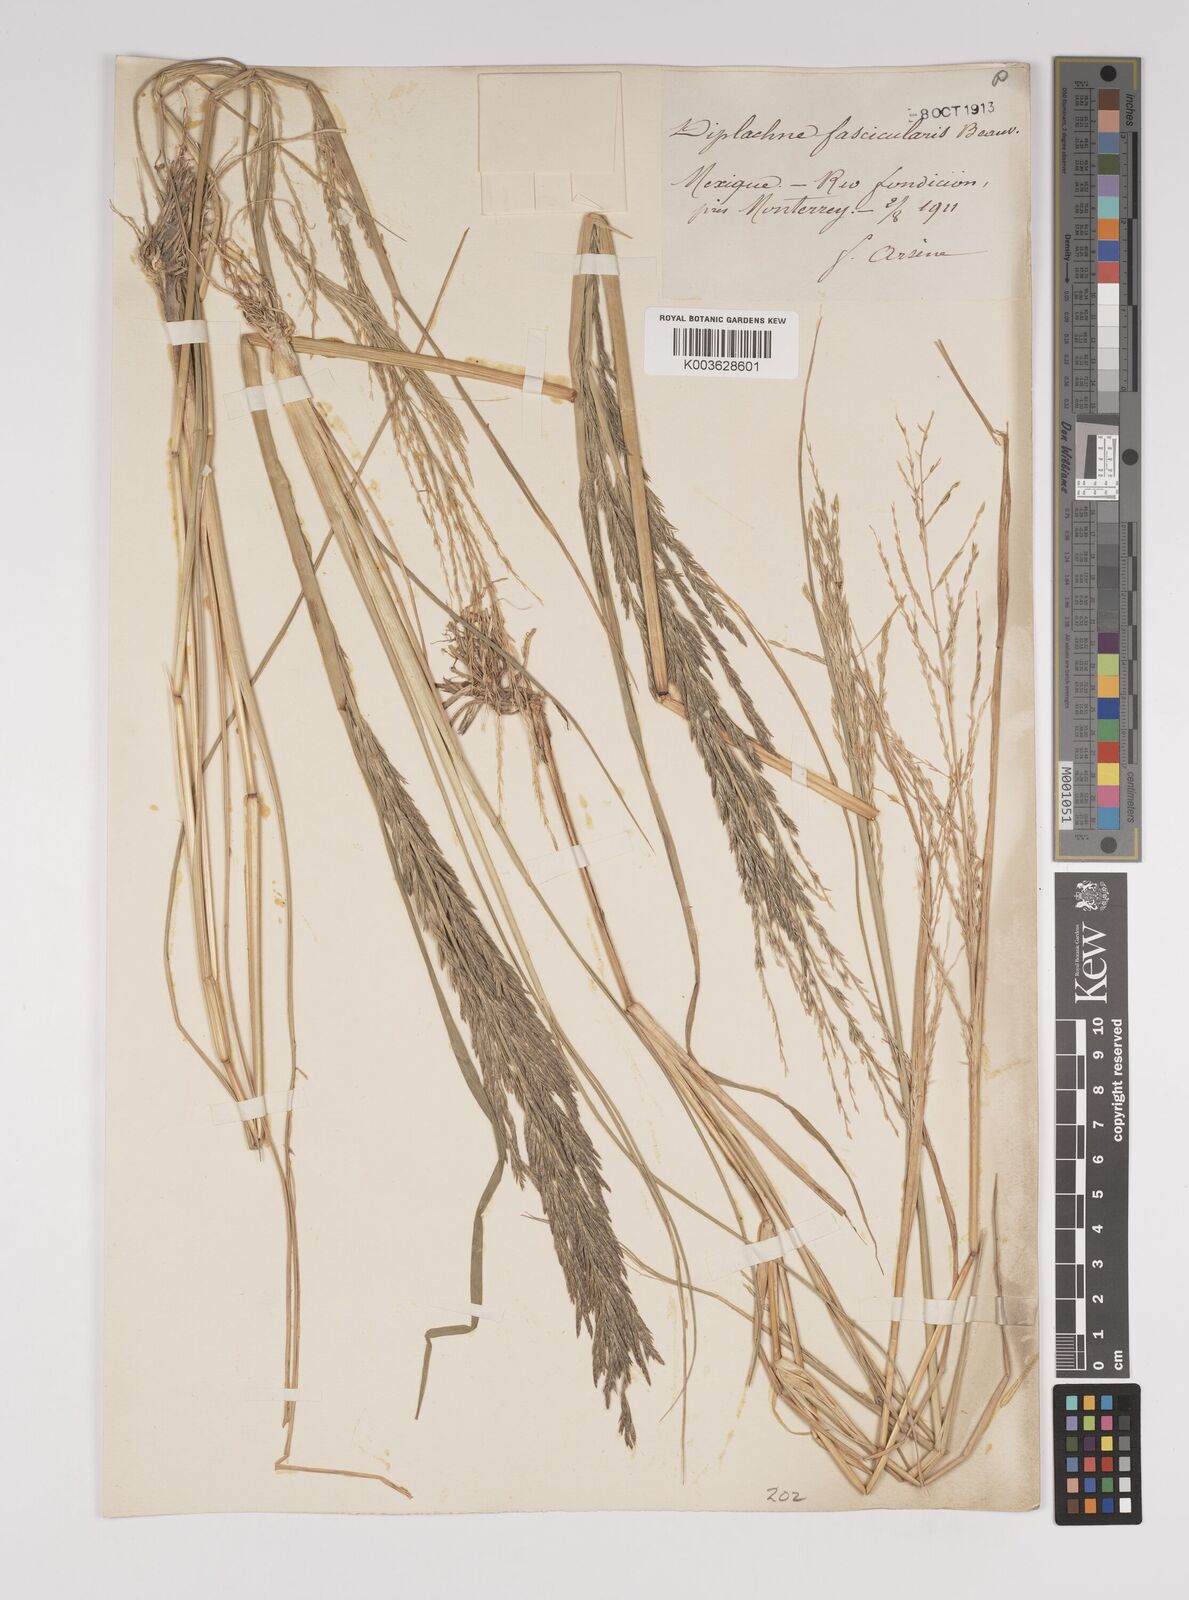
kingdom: Plantae
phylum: Tracheophyta
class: Liliopsida
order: Poales
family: Poaceae
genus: Diplachne
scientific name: Diplachne fusca
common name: Brown beetle grass
